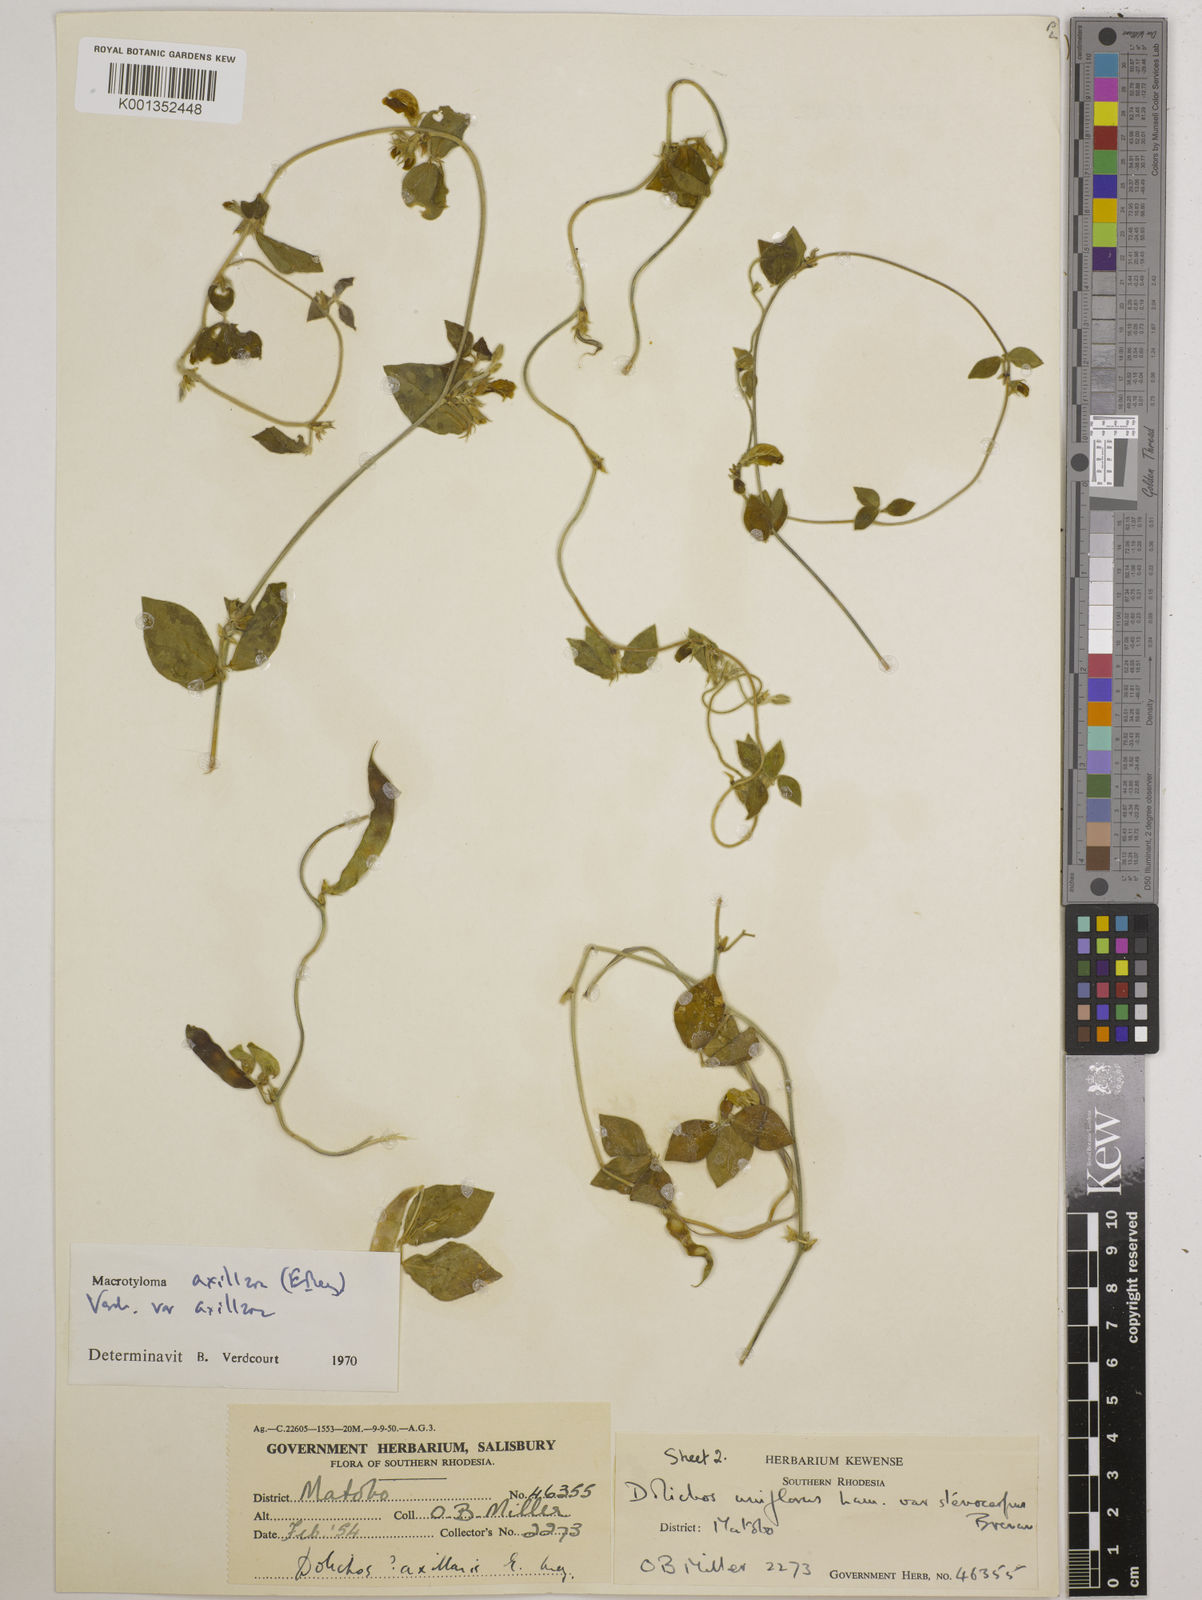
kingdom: Plantae
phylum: Tracheophyta
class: Magnoliopsida
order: Fabales
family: Fabaceae
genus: Macrotyloma
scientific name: Macrotyloma axillare
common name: Perennial horsegram
